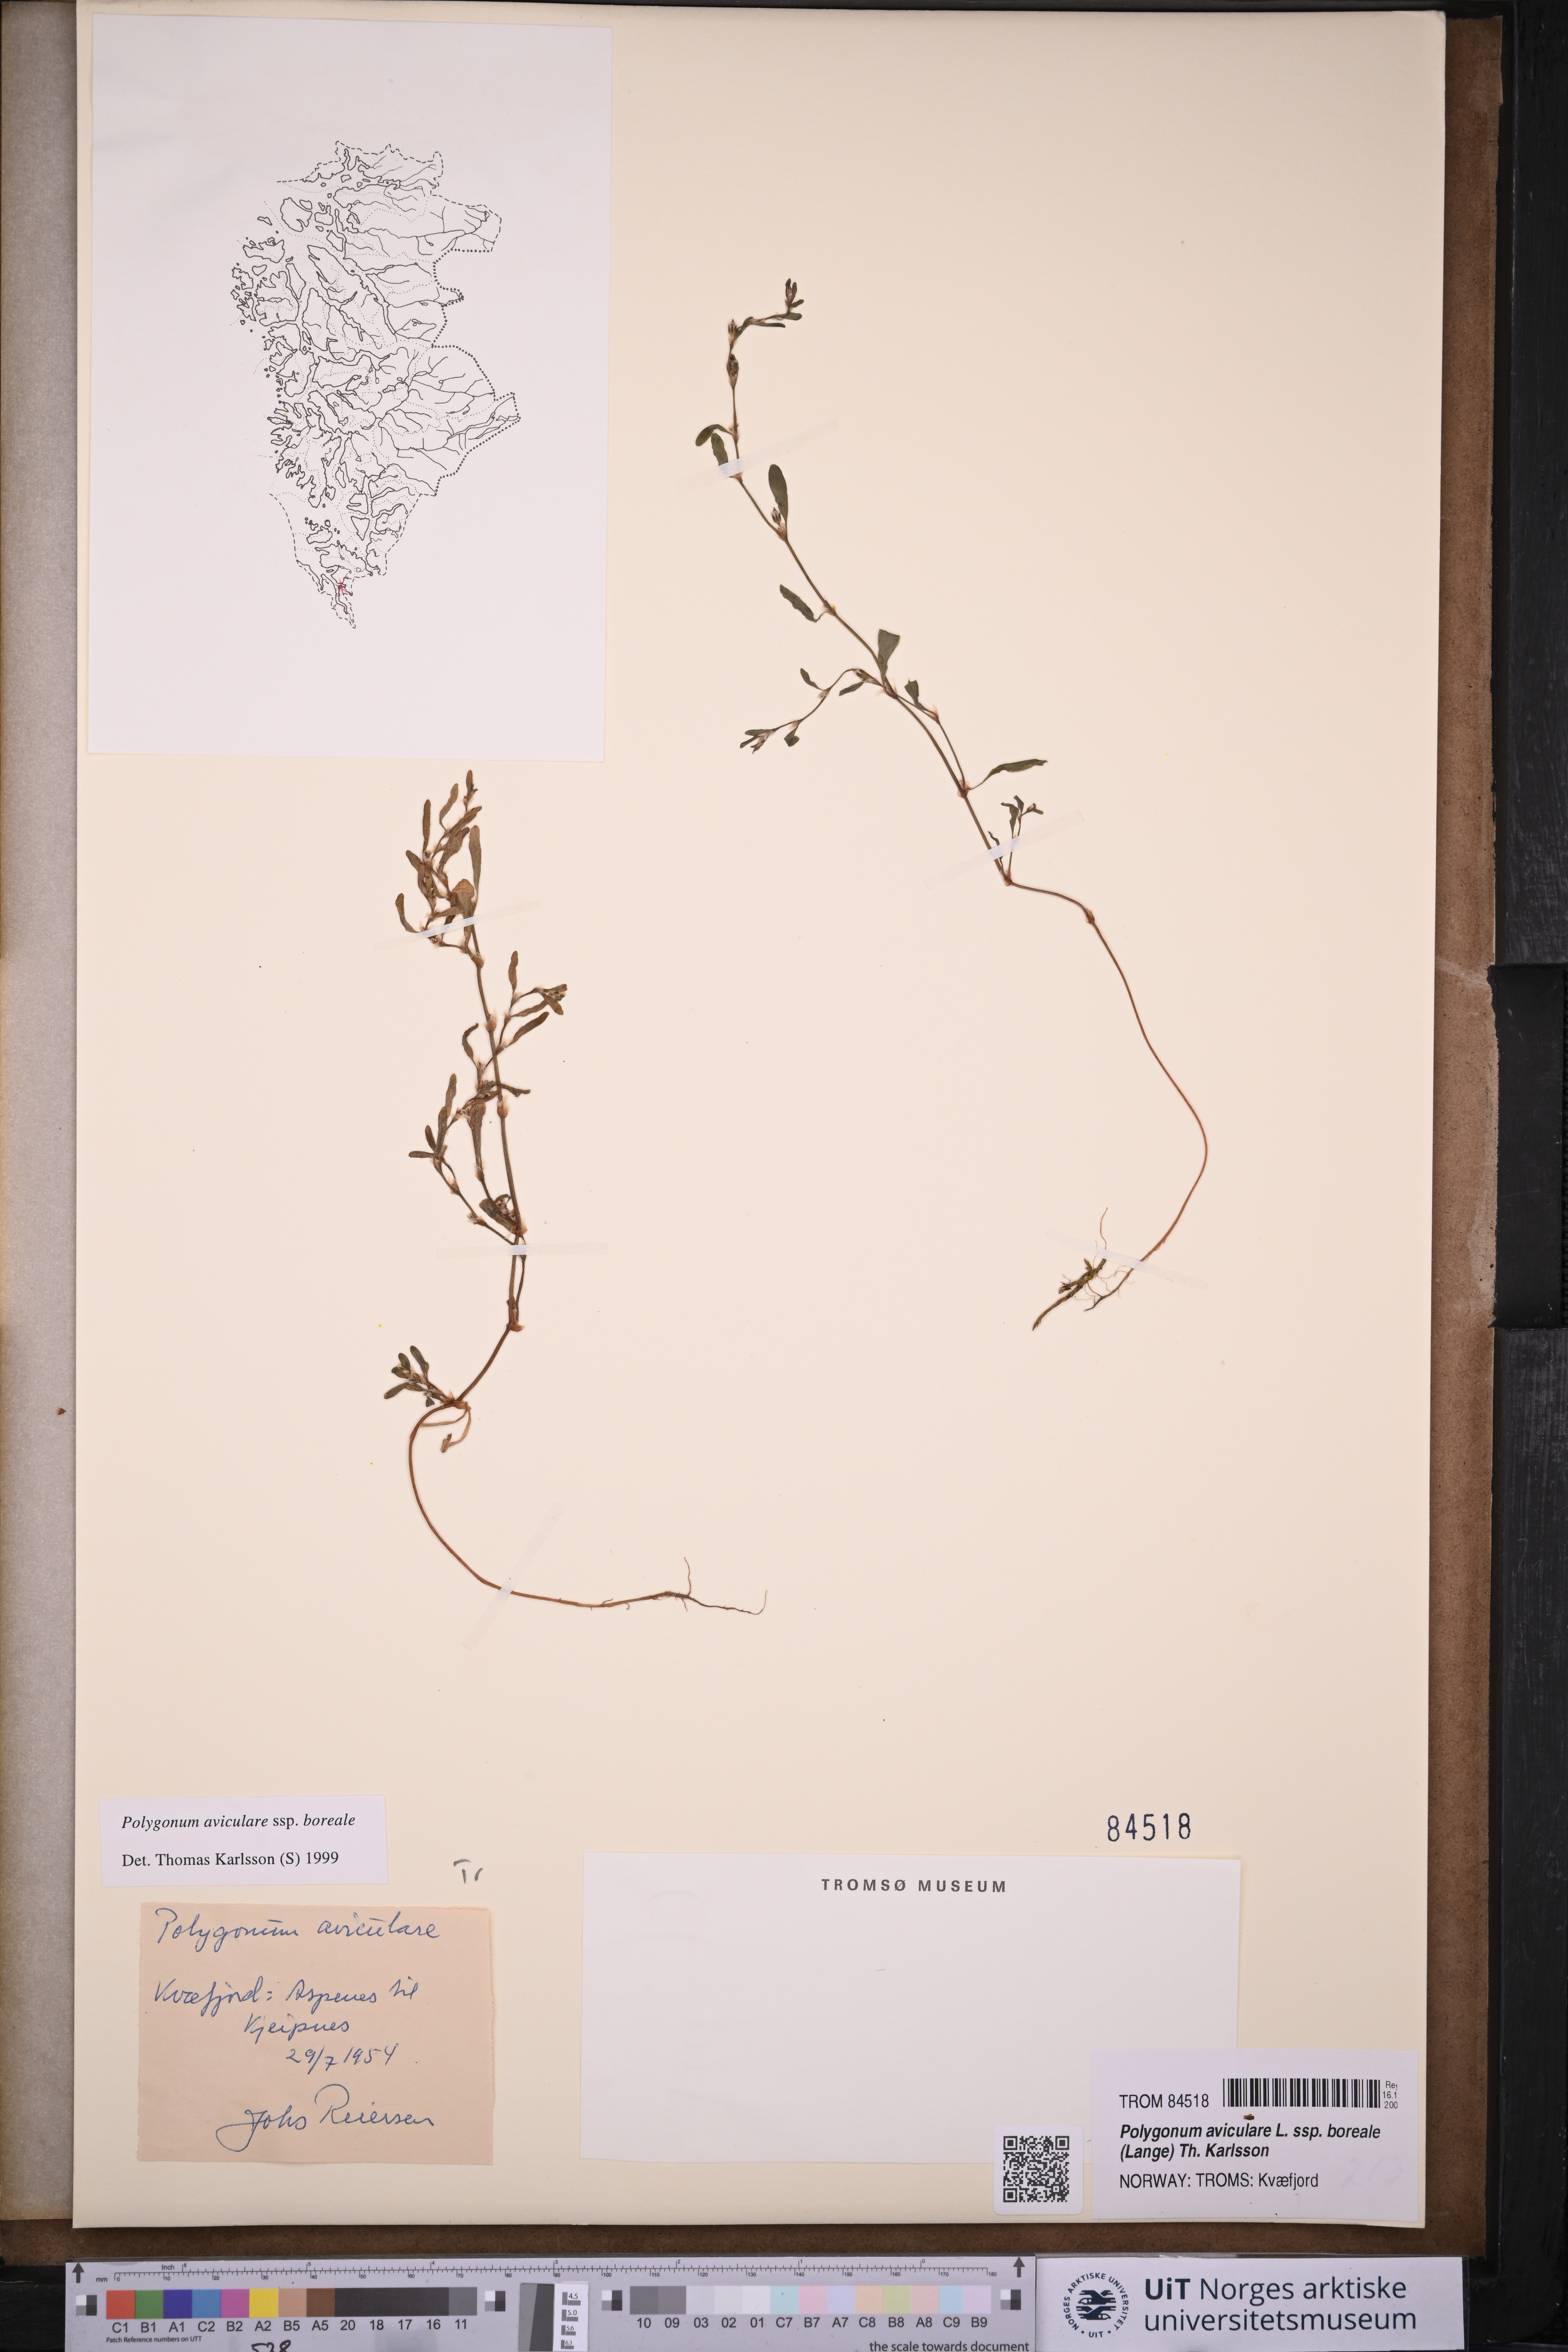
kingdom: Plantae
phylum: Tracheophyta
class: Magnoliopsida
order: Caryophyllales
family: Polygonaceae
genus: Polygonum
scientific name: Polygonum boreale
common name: Northern knotgrass
